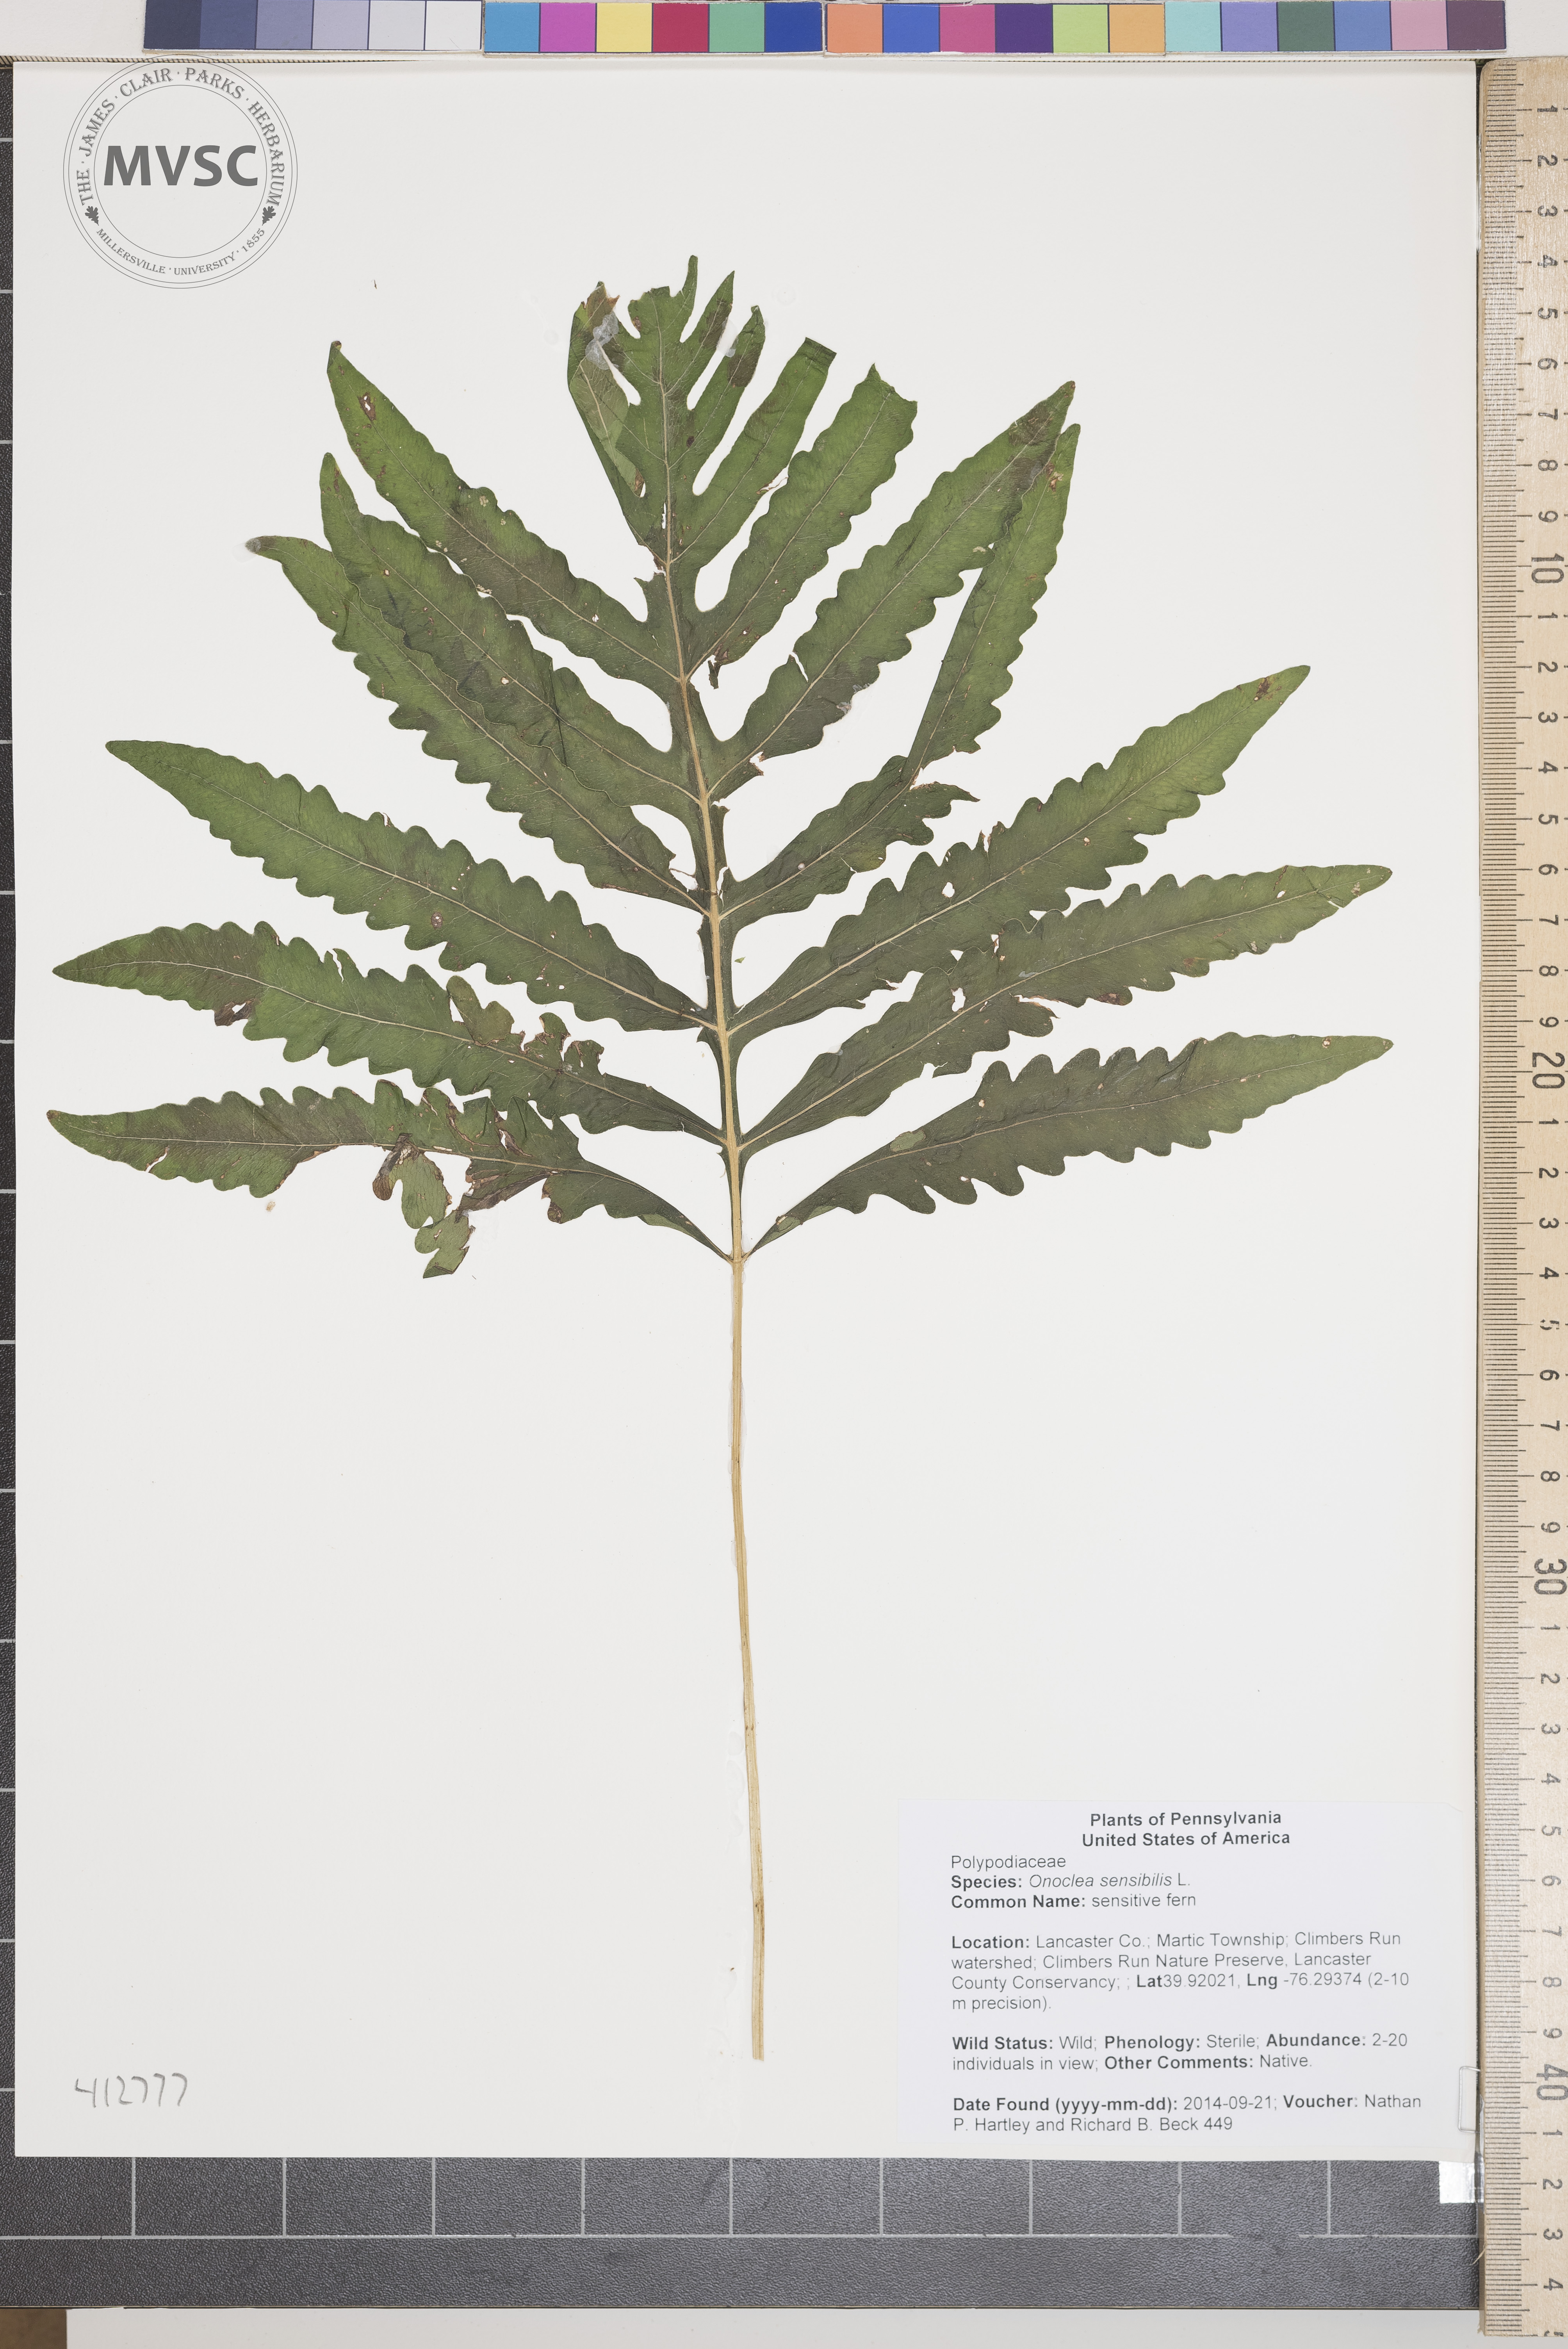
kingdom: Plantae
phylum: Tracheophyta
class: Polypodiopsida
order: Polypodiales
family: Onocleaceae
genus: Onoclea
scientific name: Onoclea sensibilis
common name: sensitive fern
